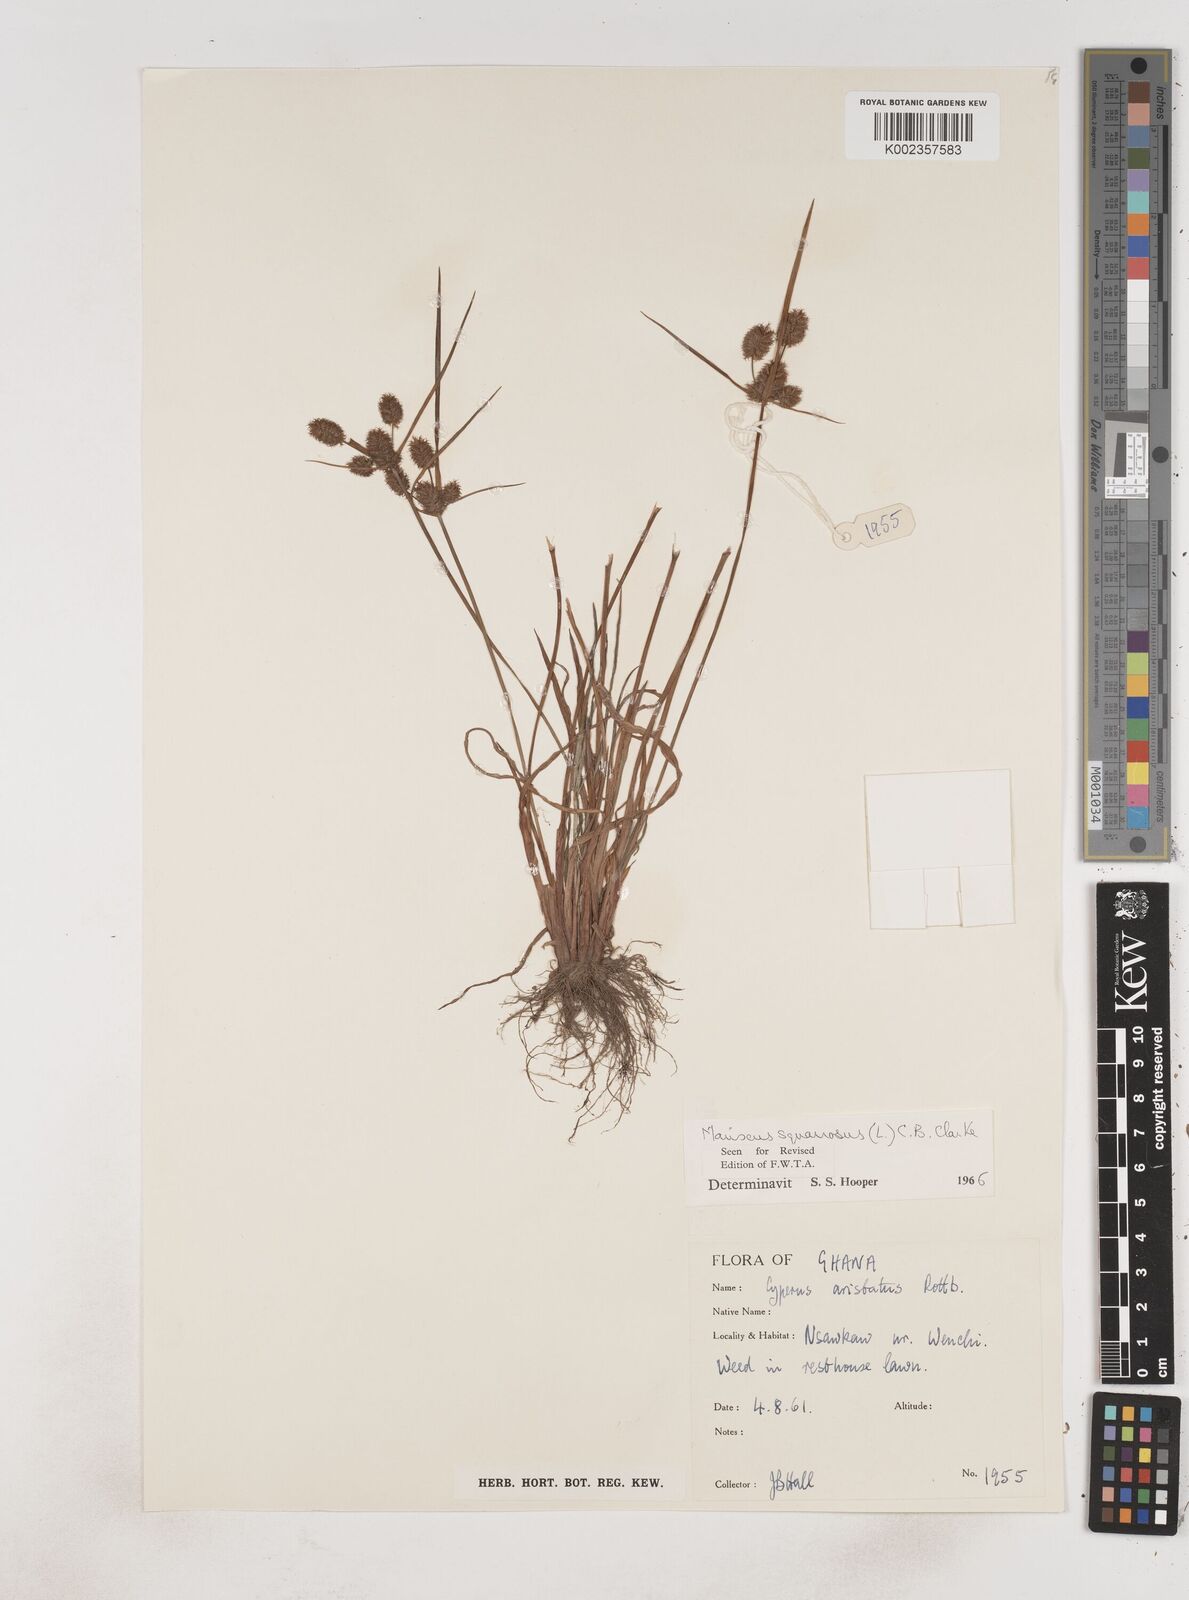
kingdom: Plantae
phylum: Tracheophyta
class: Liliopsida
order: Poales
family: Cyperaceae
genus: Cyperus
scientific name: Cyperus squarrosus
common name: Awned cyperus
